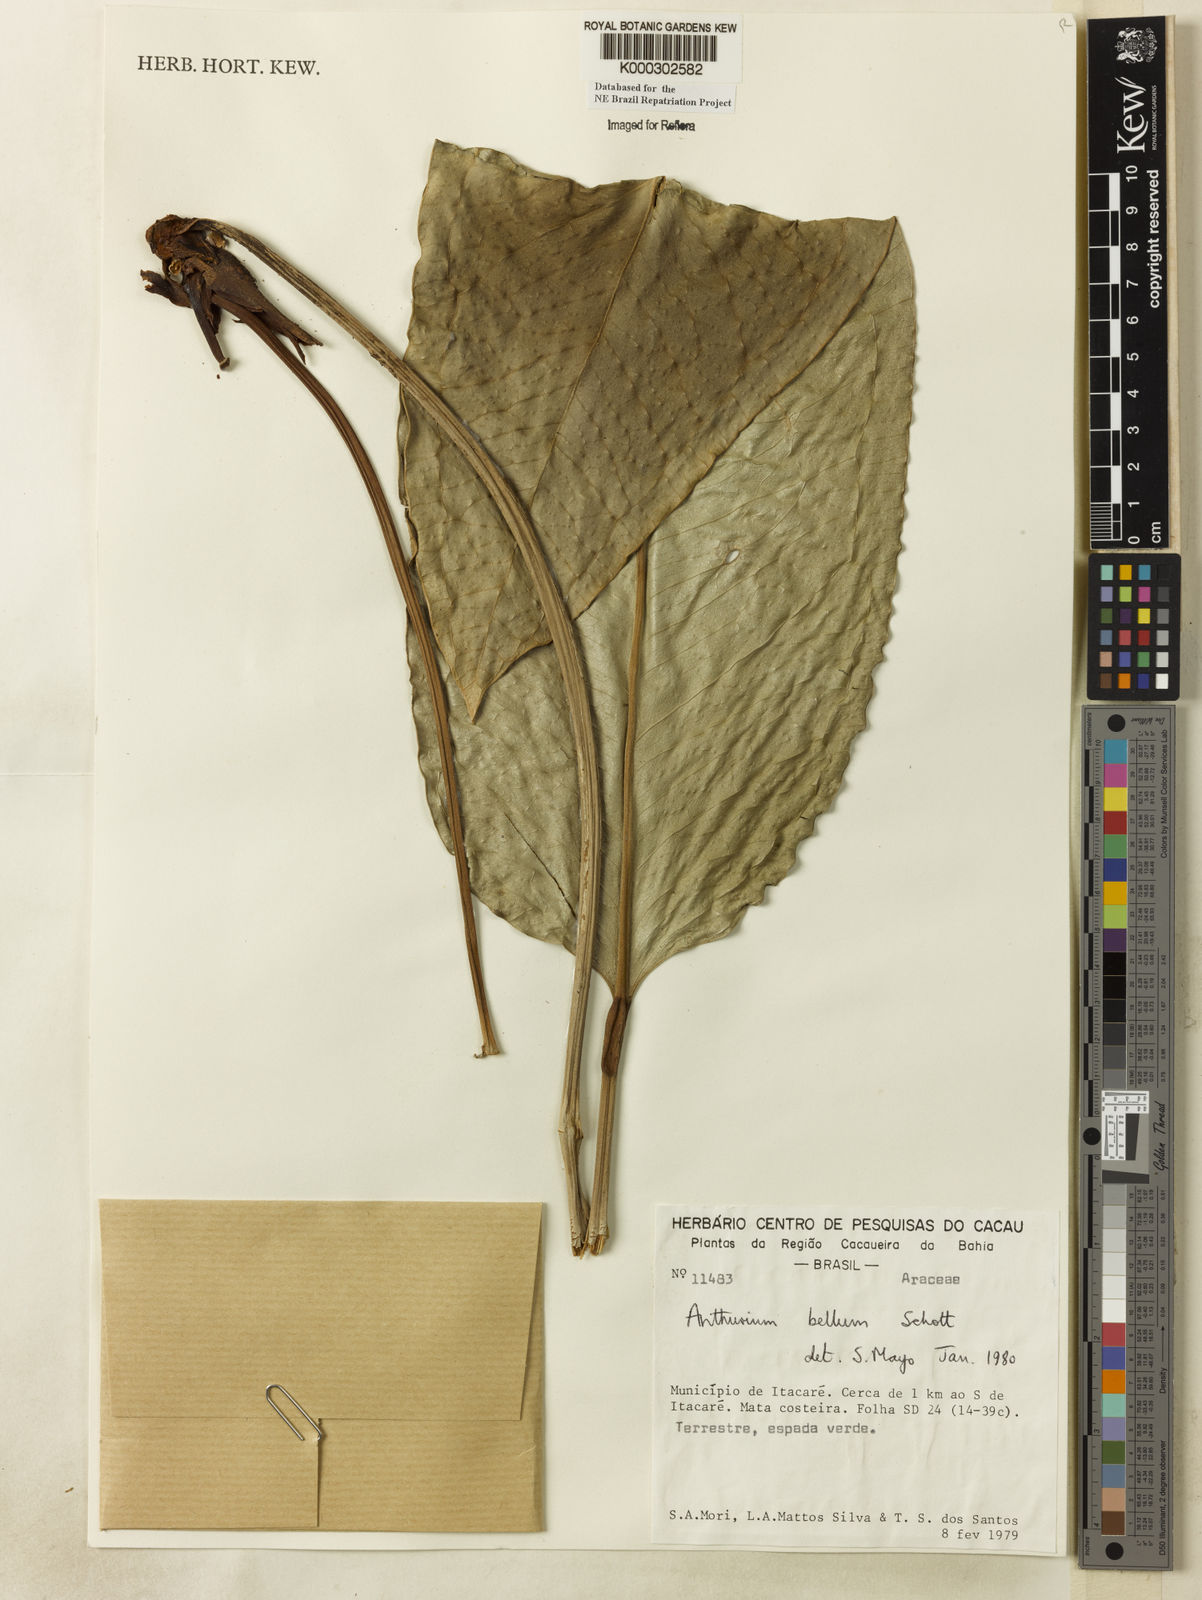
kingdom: Plantae
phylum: Tracheophyta
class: Liliopsida
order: Alismatales
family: Araceae
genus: Anthurium
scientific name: Anthurium bellum
